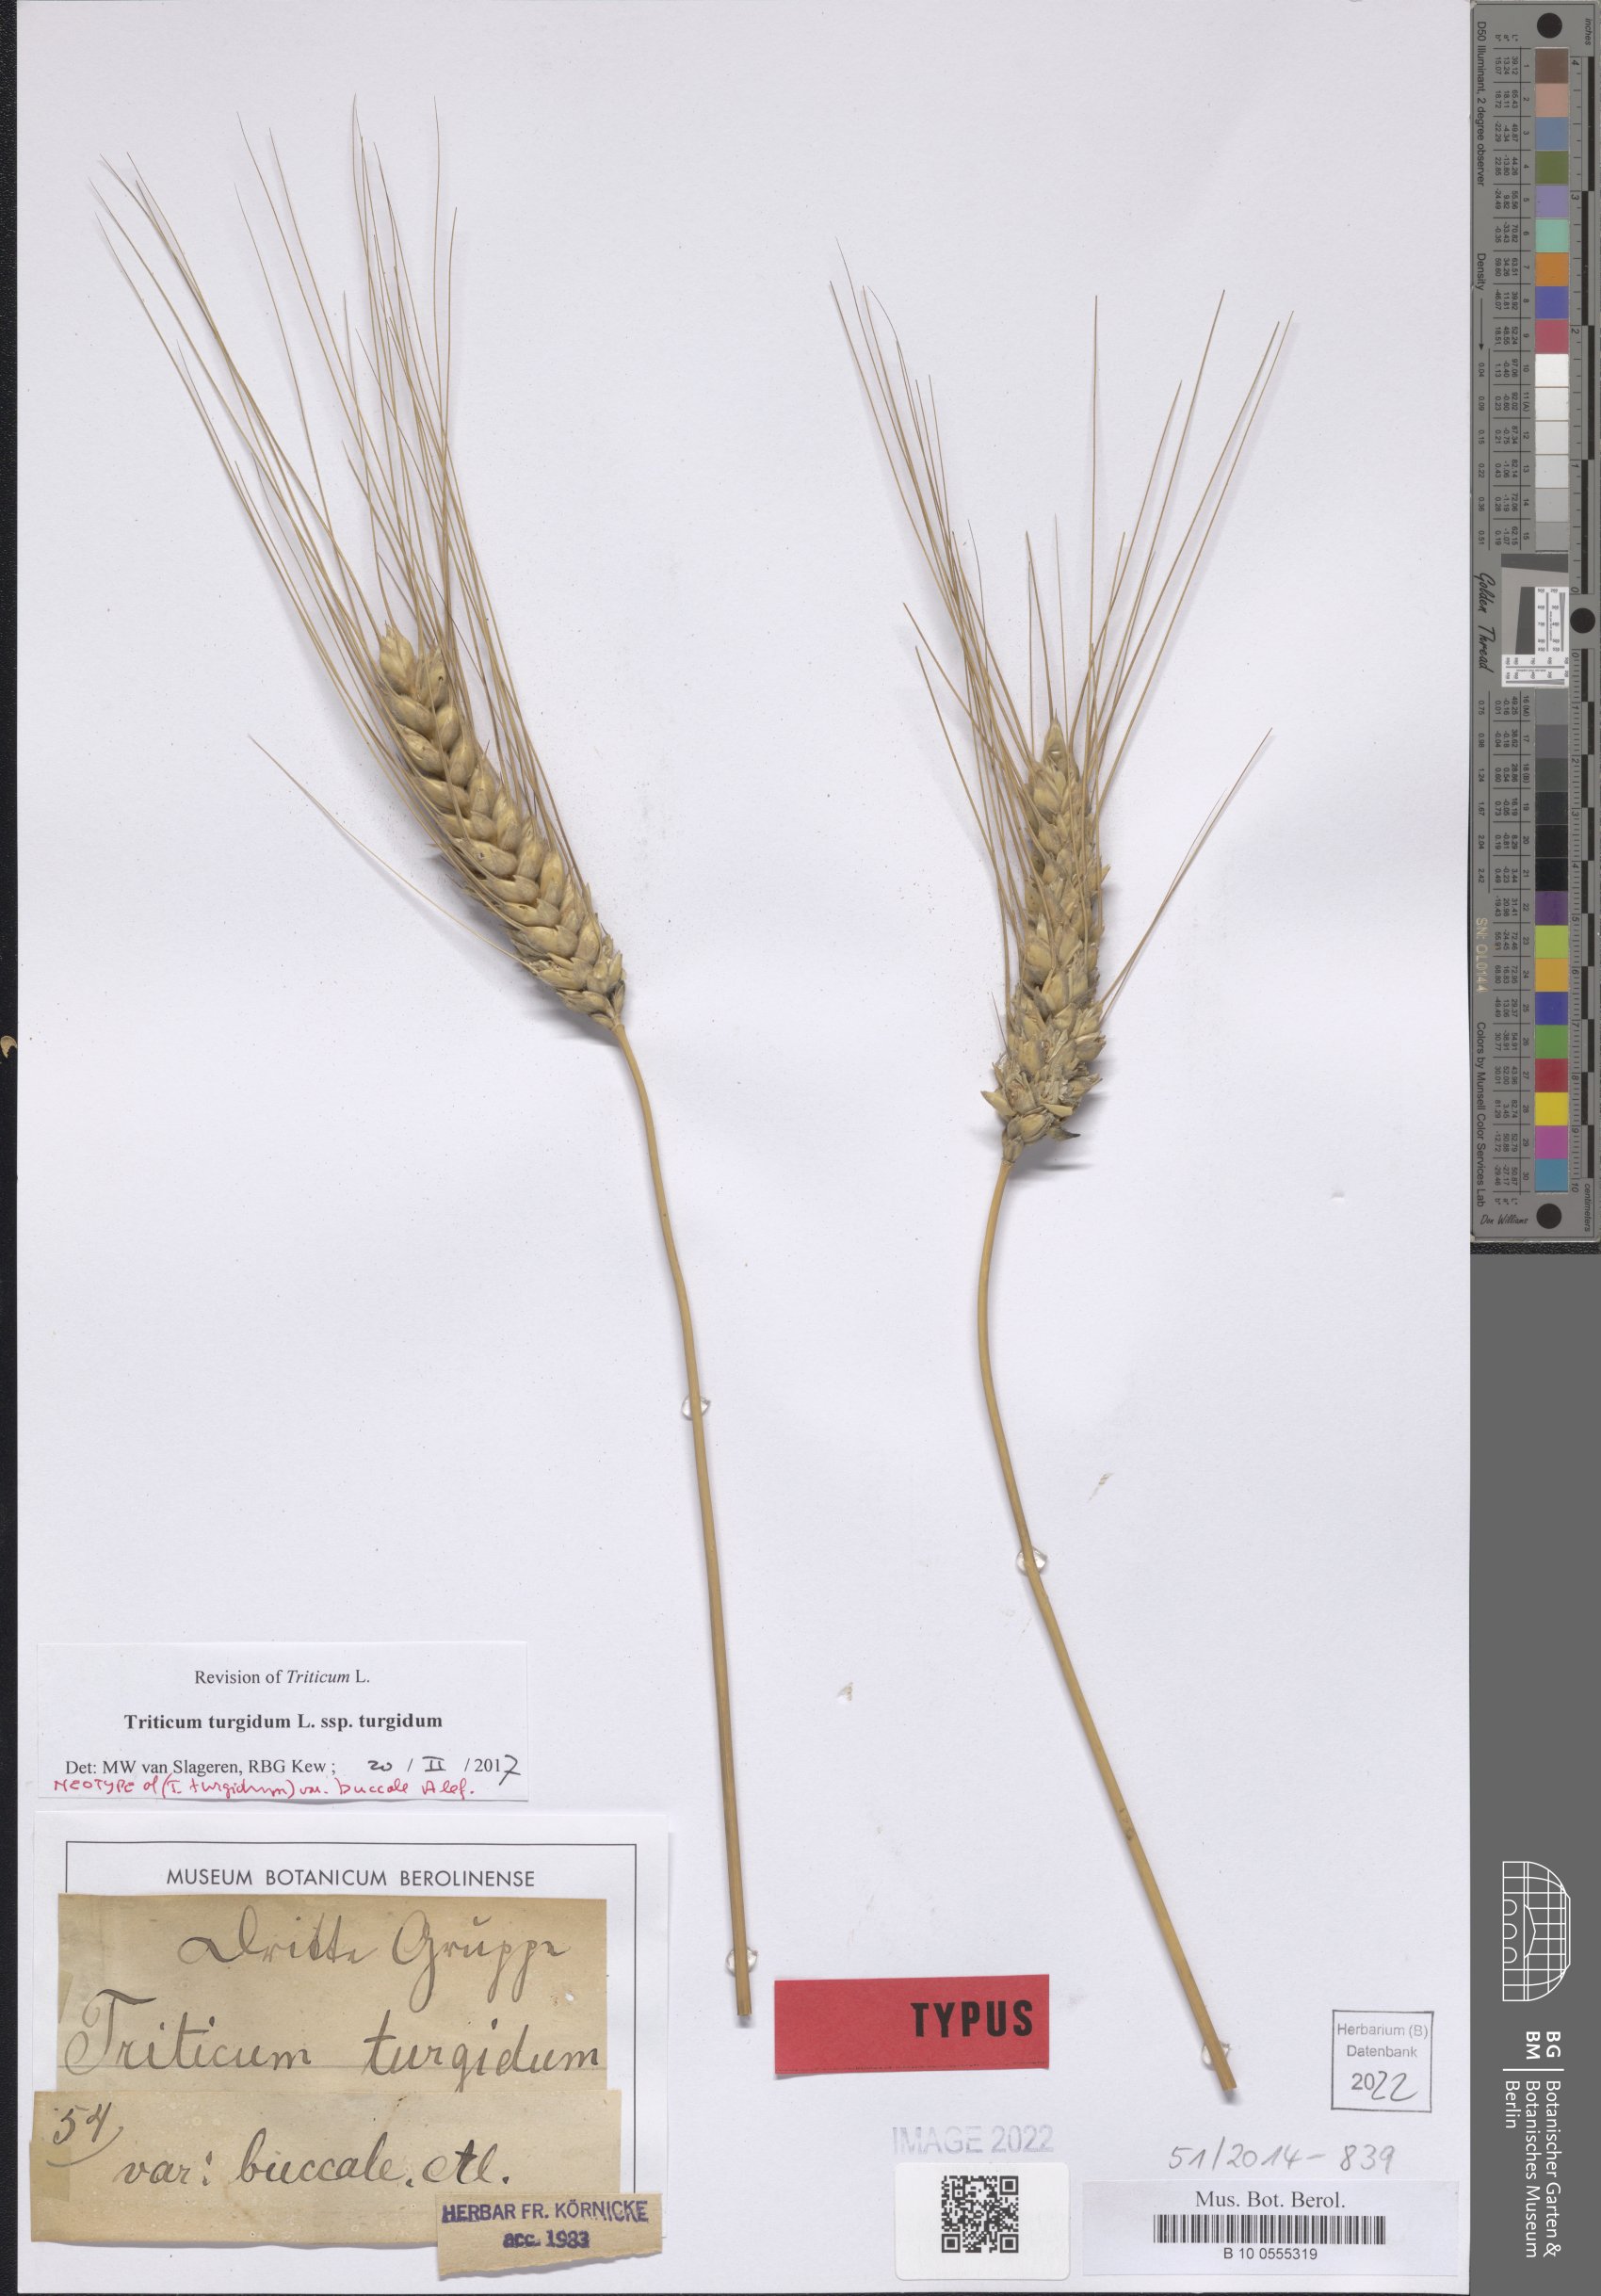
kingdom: Plantae
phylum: Tracheophyta
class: Liliopsida
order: Poales
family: Poaceae
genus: Triticum
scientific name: Triticum turgidum
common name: Rivet wheat
